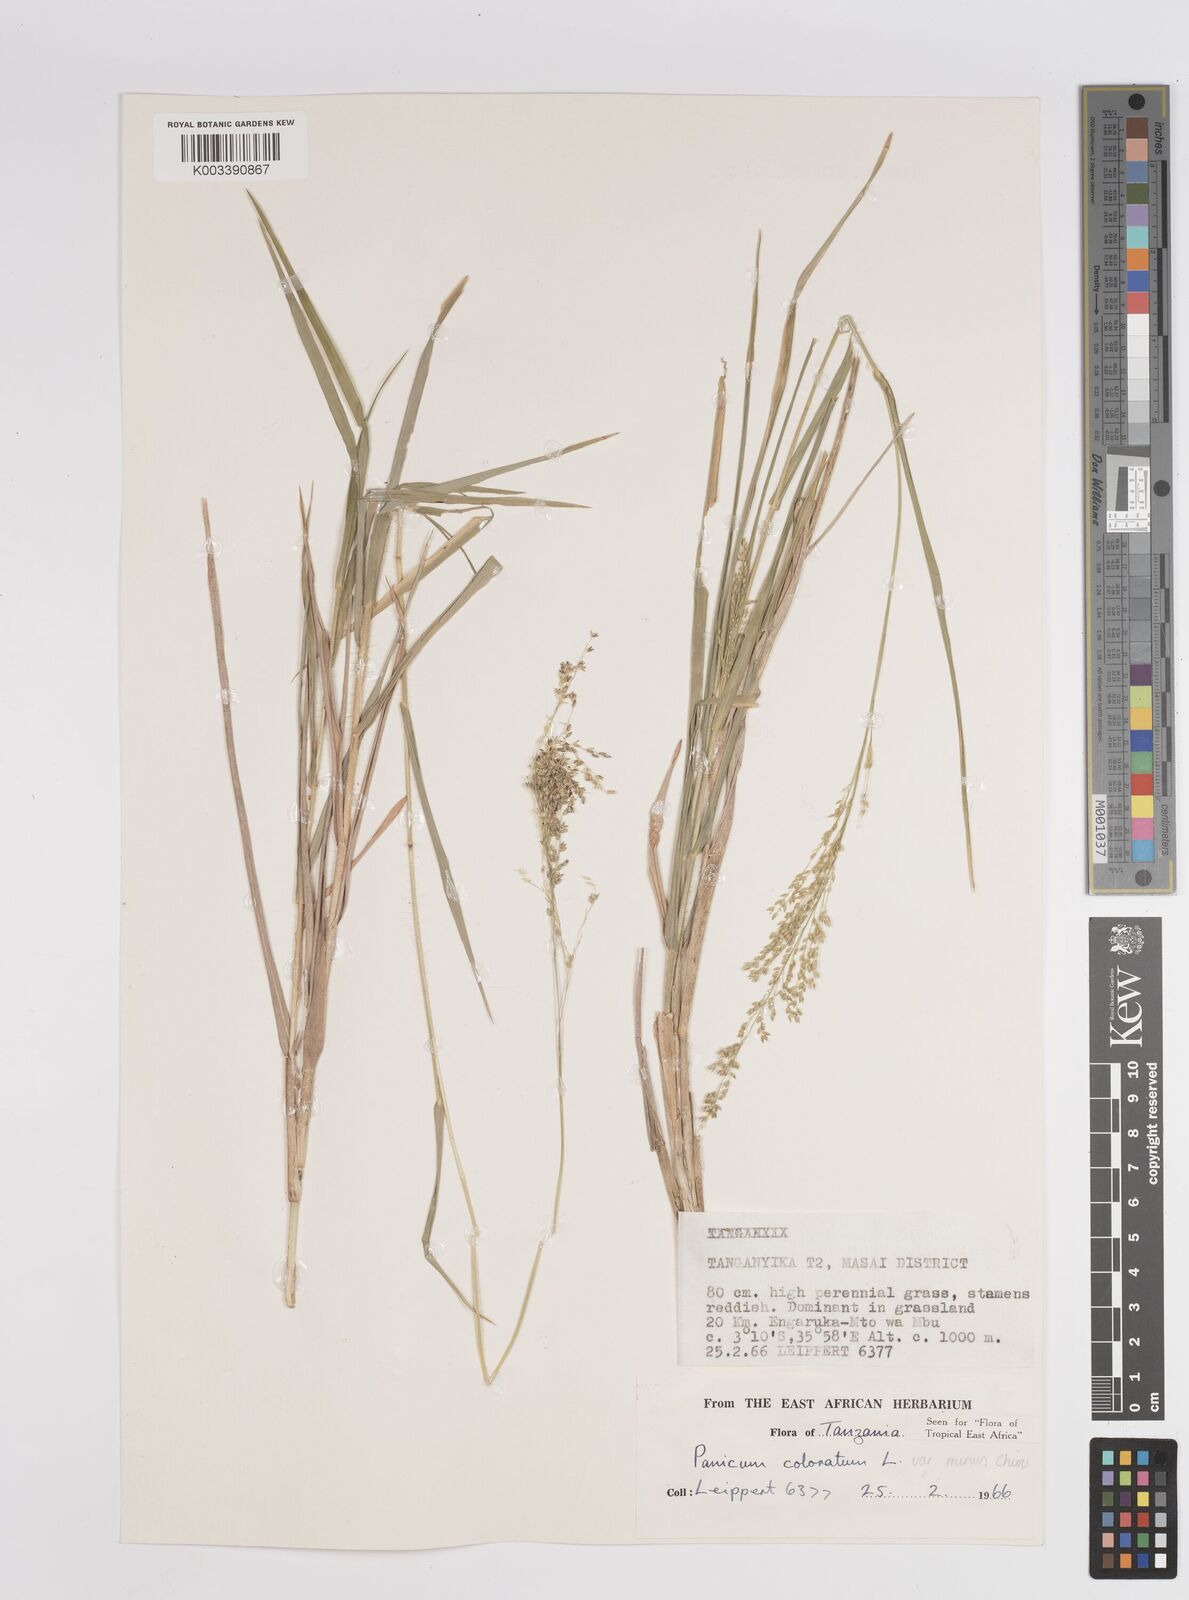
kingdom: Plantae
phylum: Tracheophyta
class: Liliopsida
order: Poales
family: Poaceae
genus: Panicum
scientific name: Panicum coloratum
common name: Kleingrass
